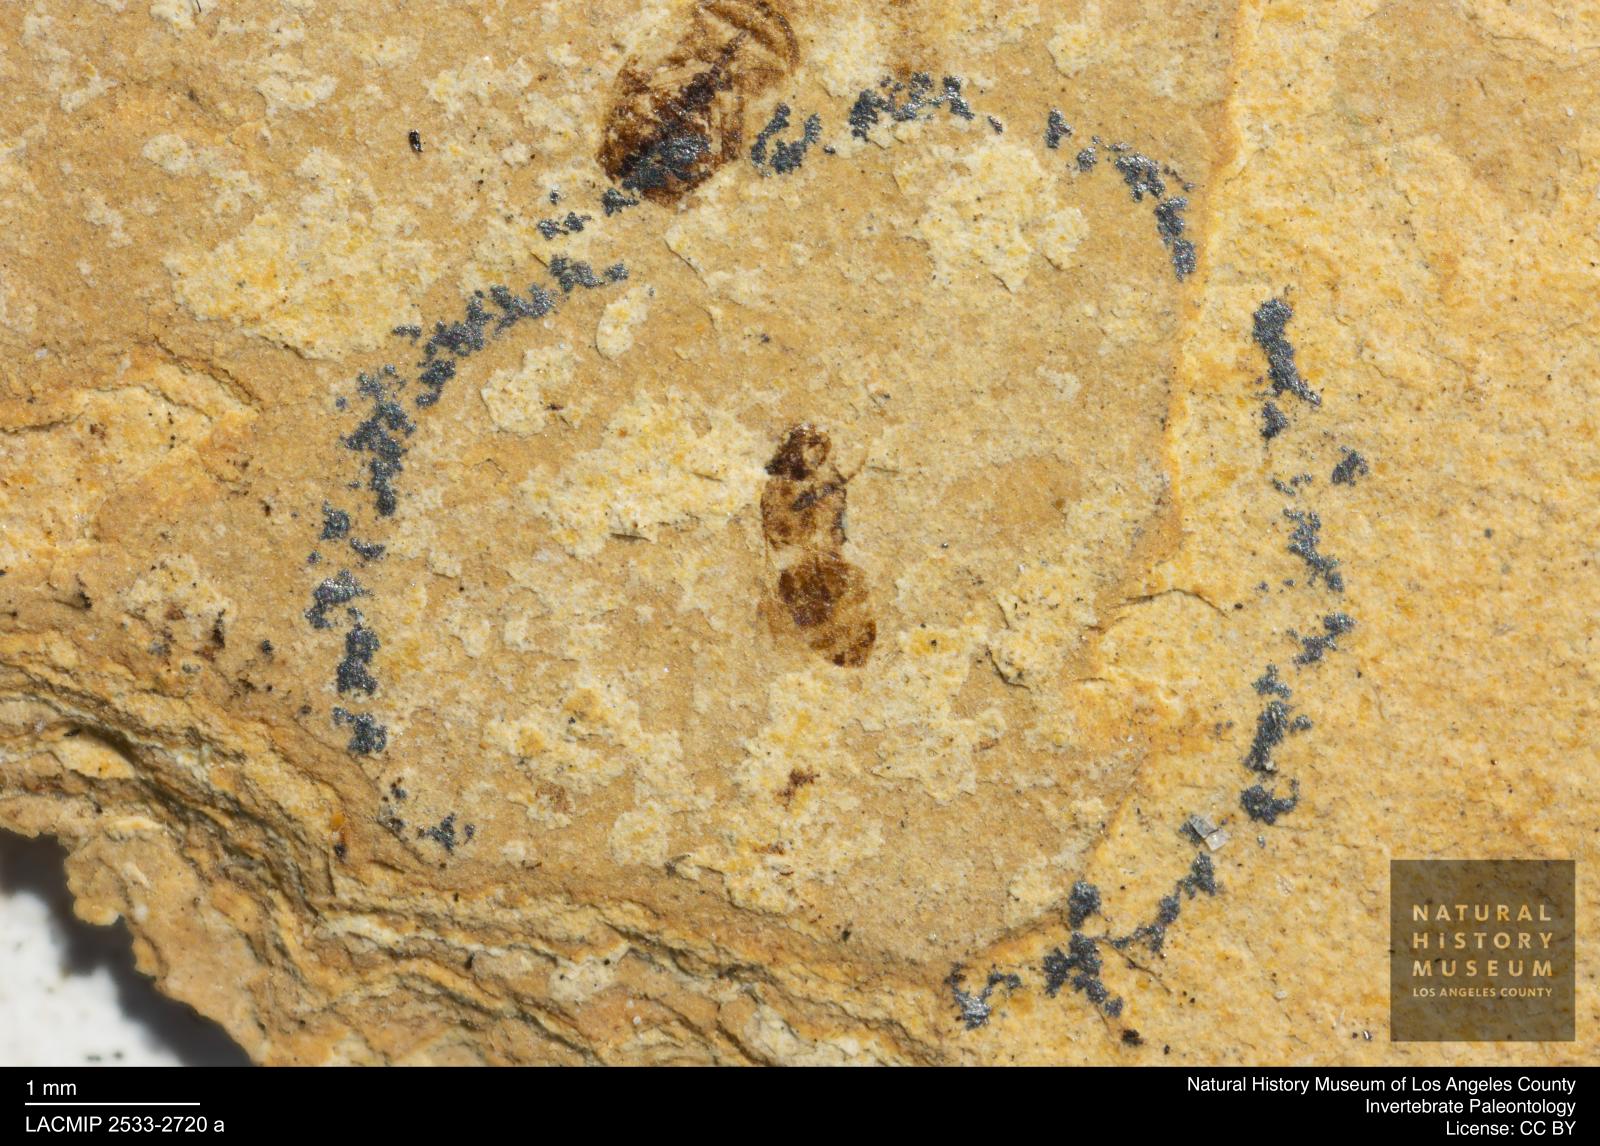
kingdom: Animalia
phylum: Arthropoda
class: Insecta
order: Hymenoptera
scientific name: Hymenoptera
